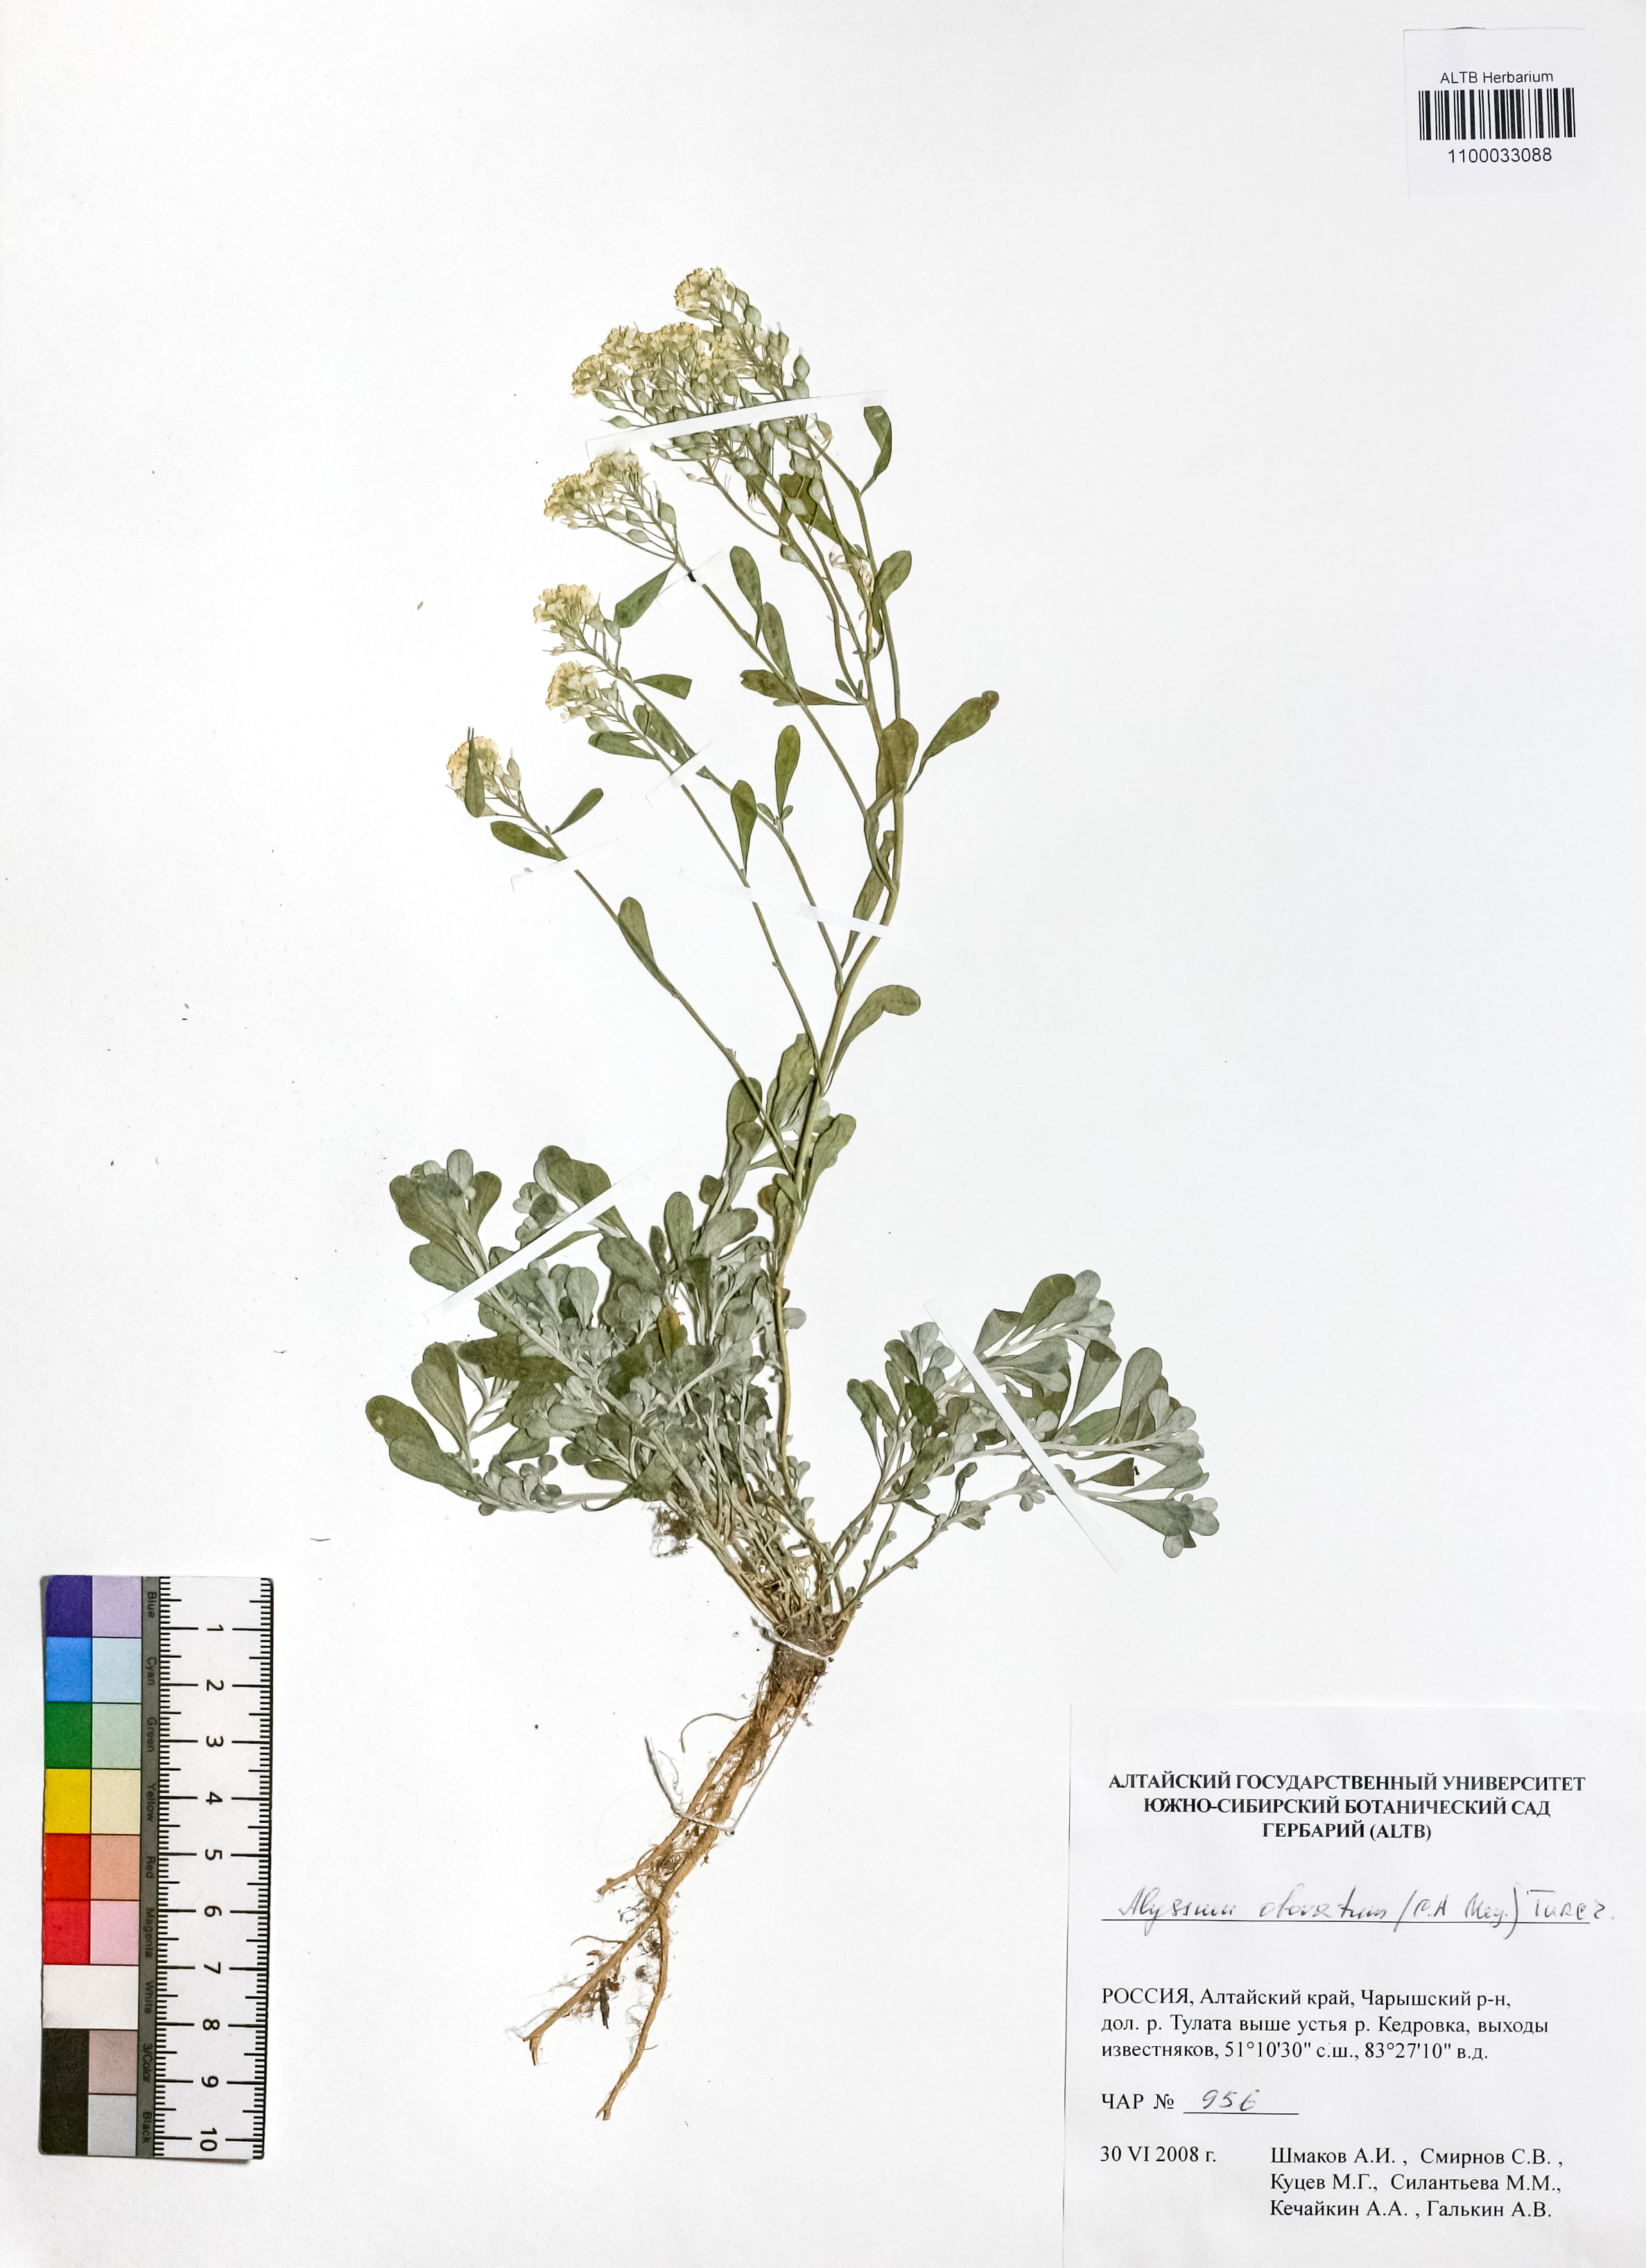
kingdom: Plantae
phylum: Tracheophyta
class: Magnoliopsida
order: Brassicales
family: Brassicaceae
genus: Odontarrhena
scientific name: Odontarrhena obovata
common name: American alyssum
